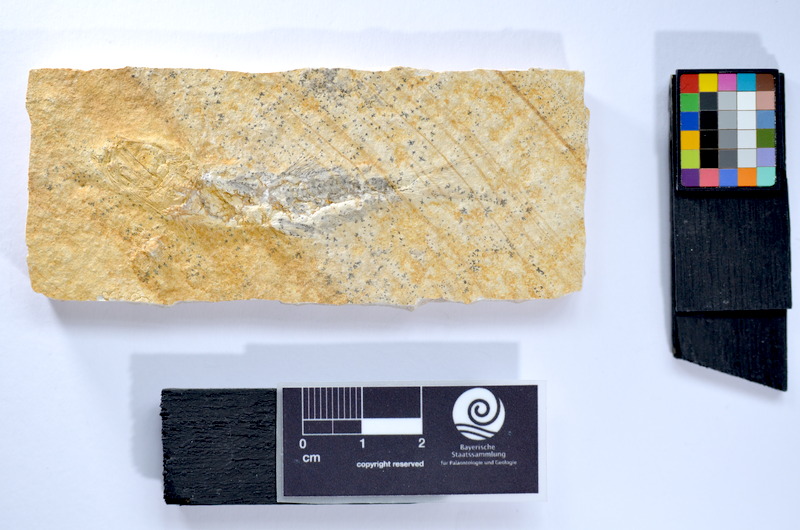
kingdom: Animalia
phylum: Chordata
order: Salmoniformes
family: Orthogonikleithridae
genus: Leptolepides
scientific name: Leptolepides
